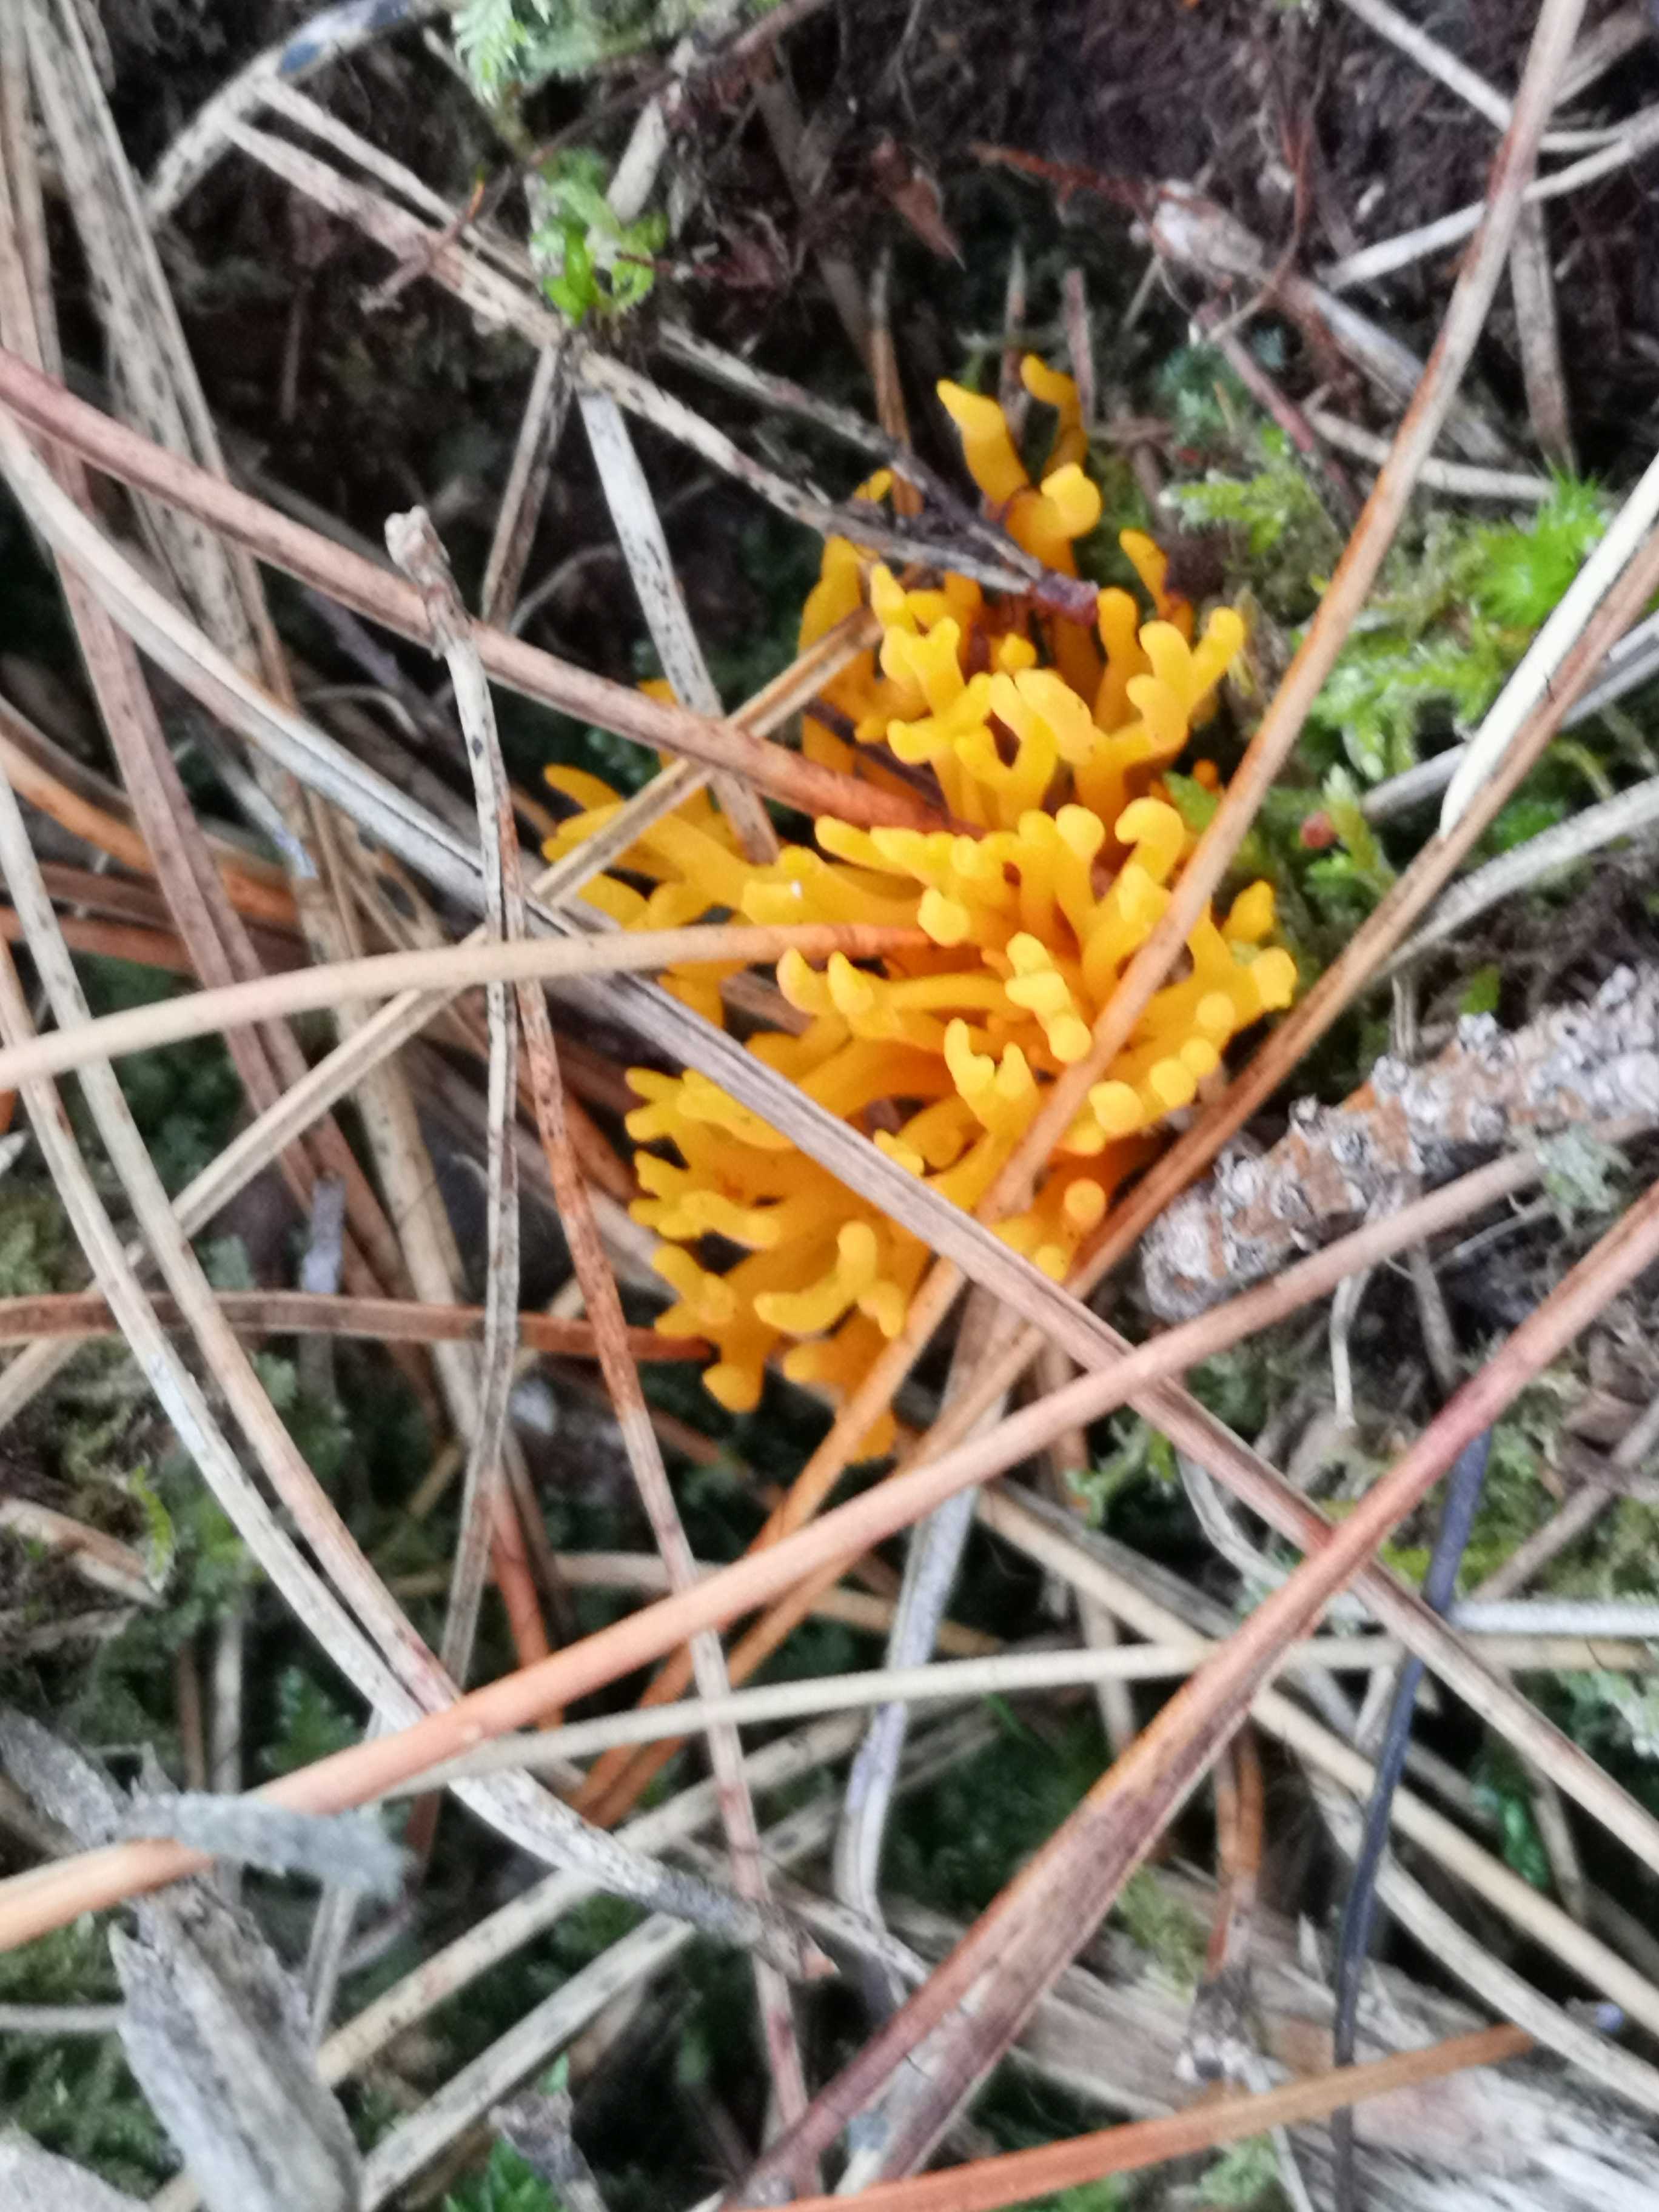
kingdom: Fungi
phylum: Basidiomycota
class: Dacrymycetes
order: Dacrymycetales
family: Dacrymycetaceae
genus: Calocera
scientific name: Calocera viscosa
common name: almindelig guldgaffel
